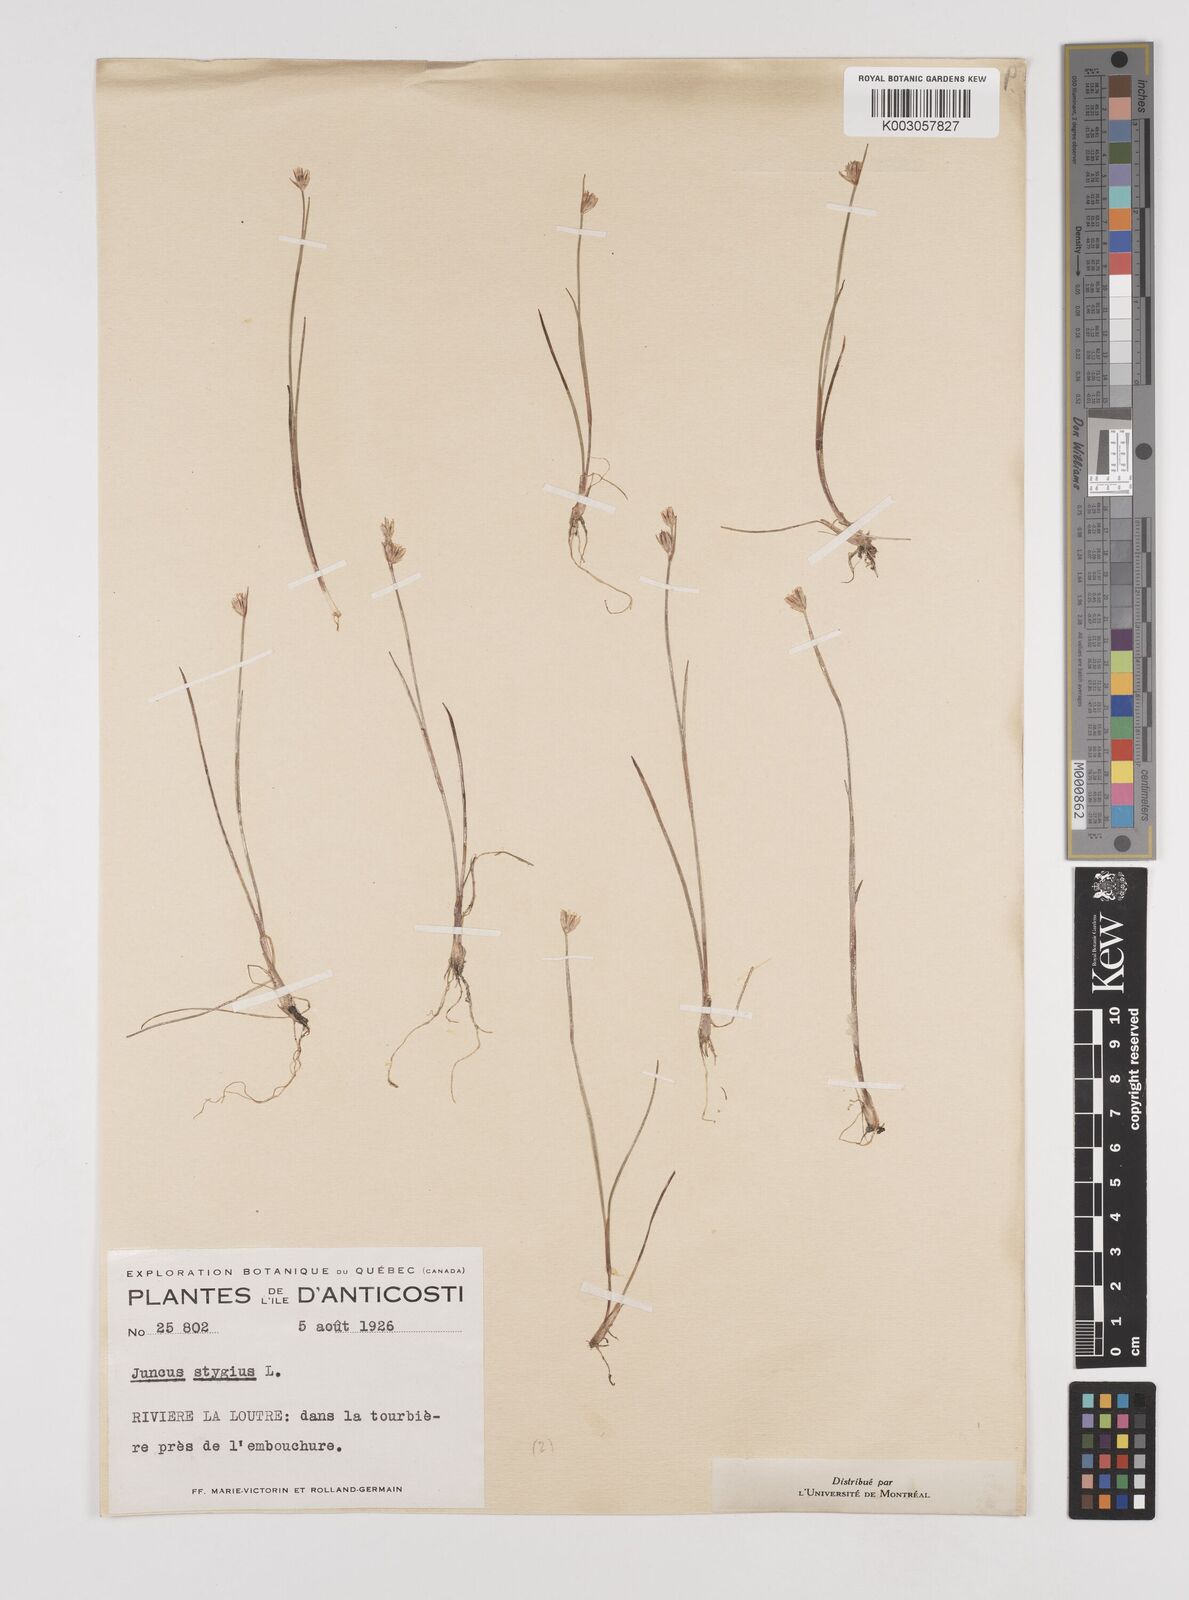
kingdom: Plantae
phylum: Tracheophyta
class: Liliopsida
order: Poales
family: Juncaceae
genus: Juncus
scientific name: Juncus stygius
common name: Bog rush
